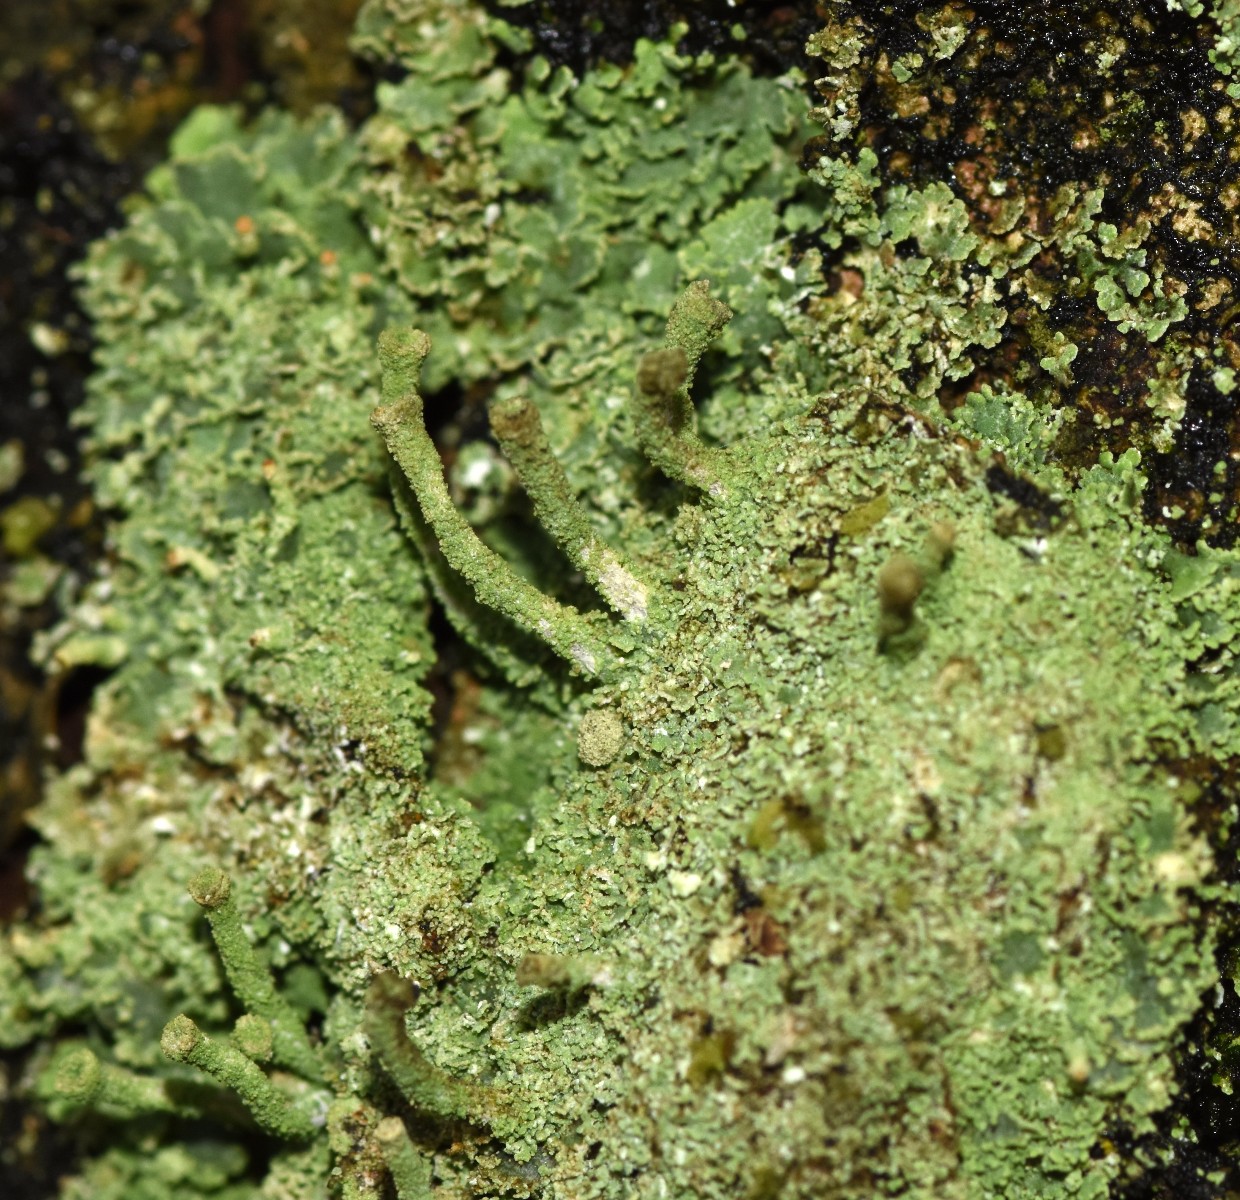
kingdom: Fungi
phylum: Ascomycota
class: Lecanoromycetes
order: Lecanorales
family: Cladoniaceae
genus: Cladonia
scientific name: Cladonia
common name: brungrøn bægerlav
